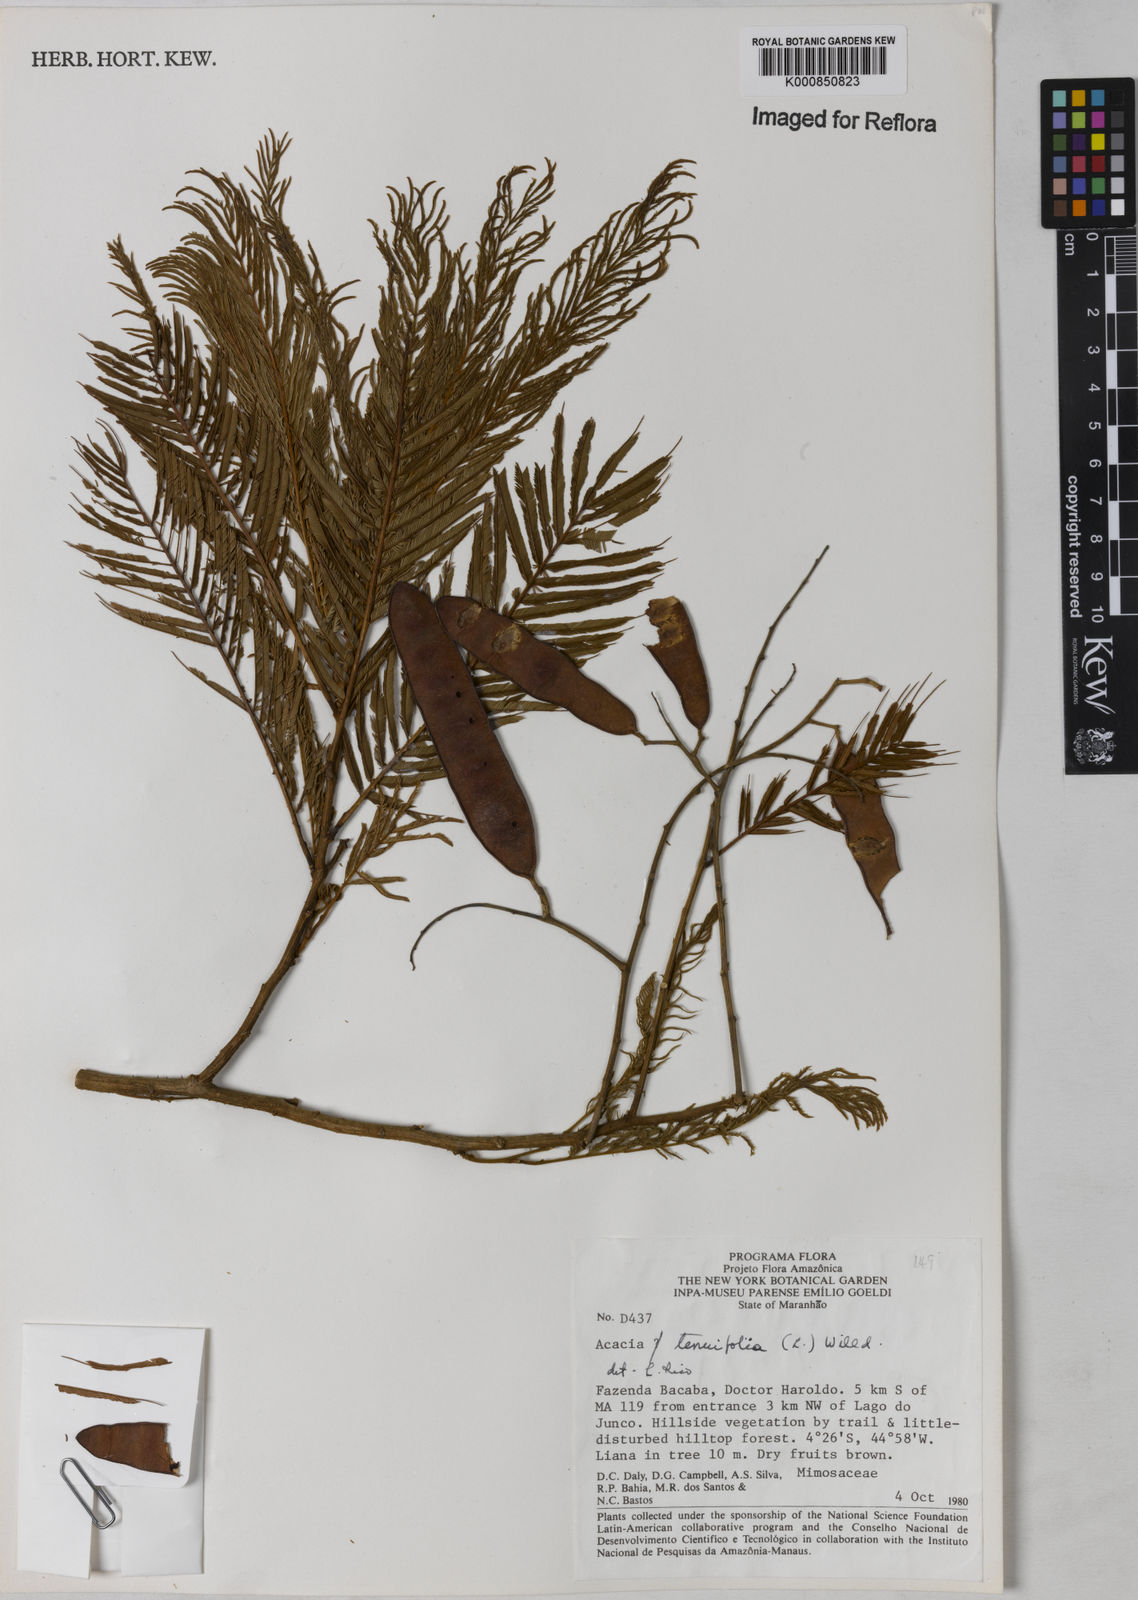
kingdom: Plantae
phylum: Tracheophyta
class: Magnoliopsida
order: Fabales
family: Fabaceae
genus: Senegalia
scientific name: Senegalia tenuifolia
